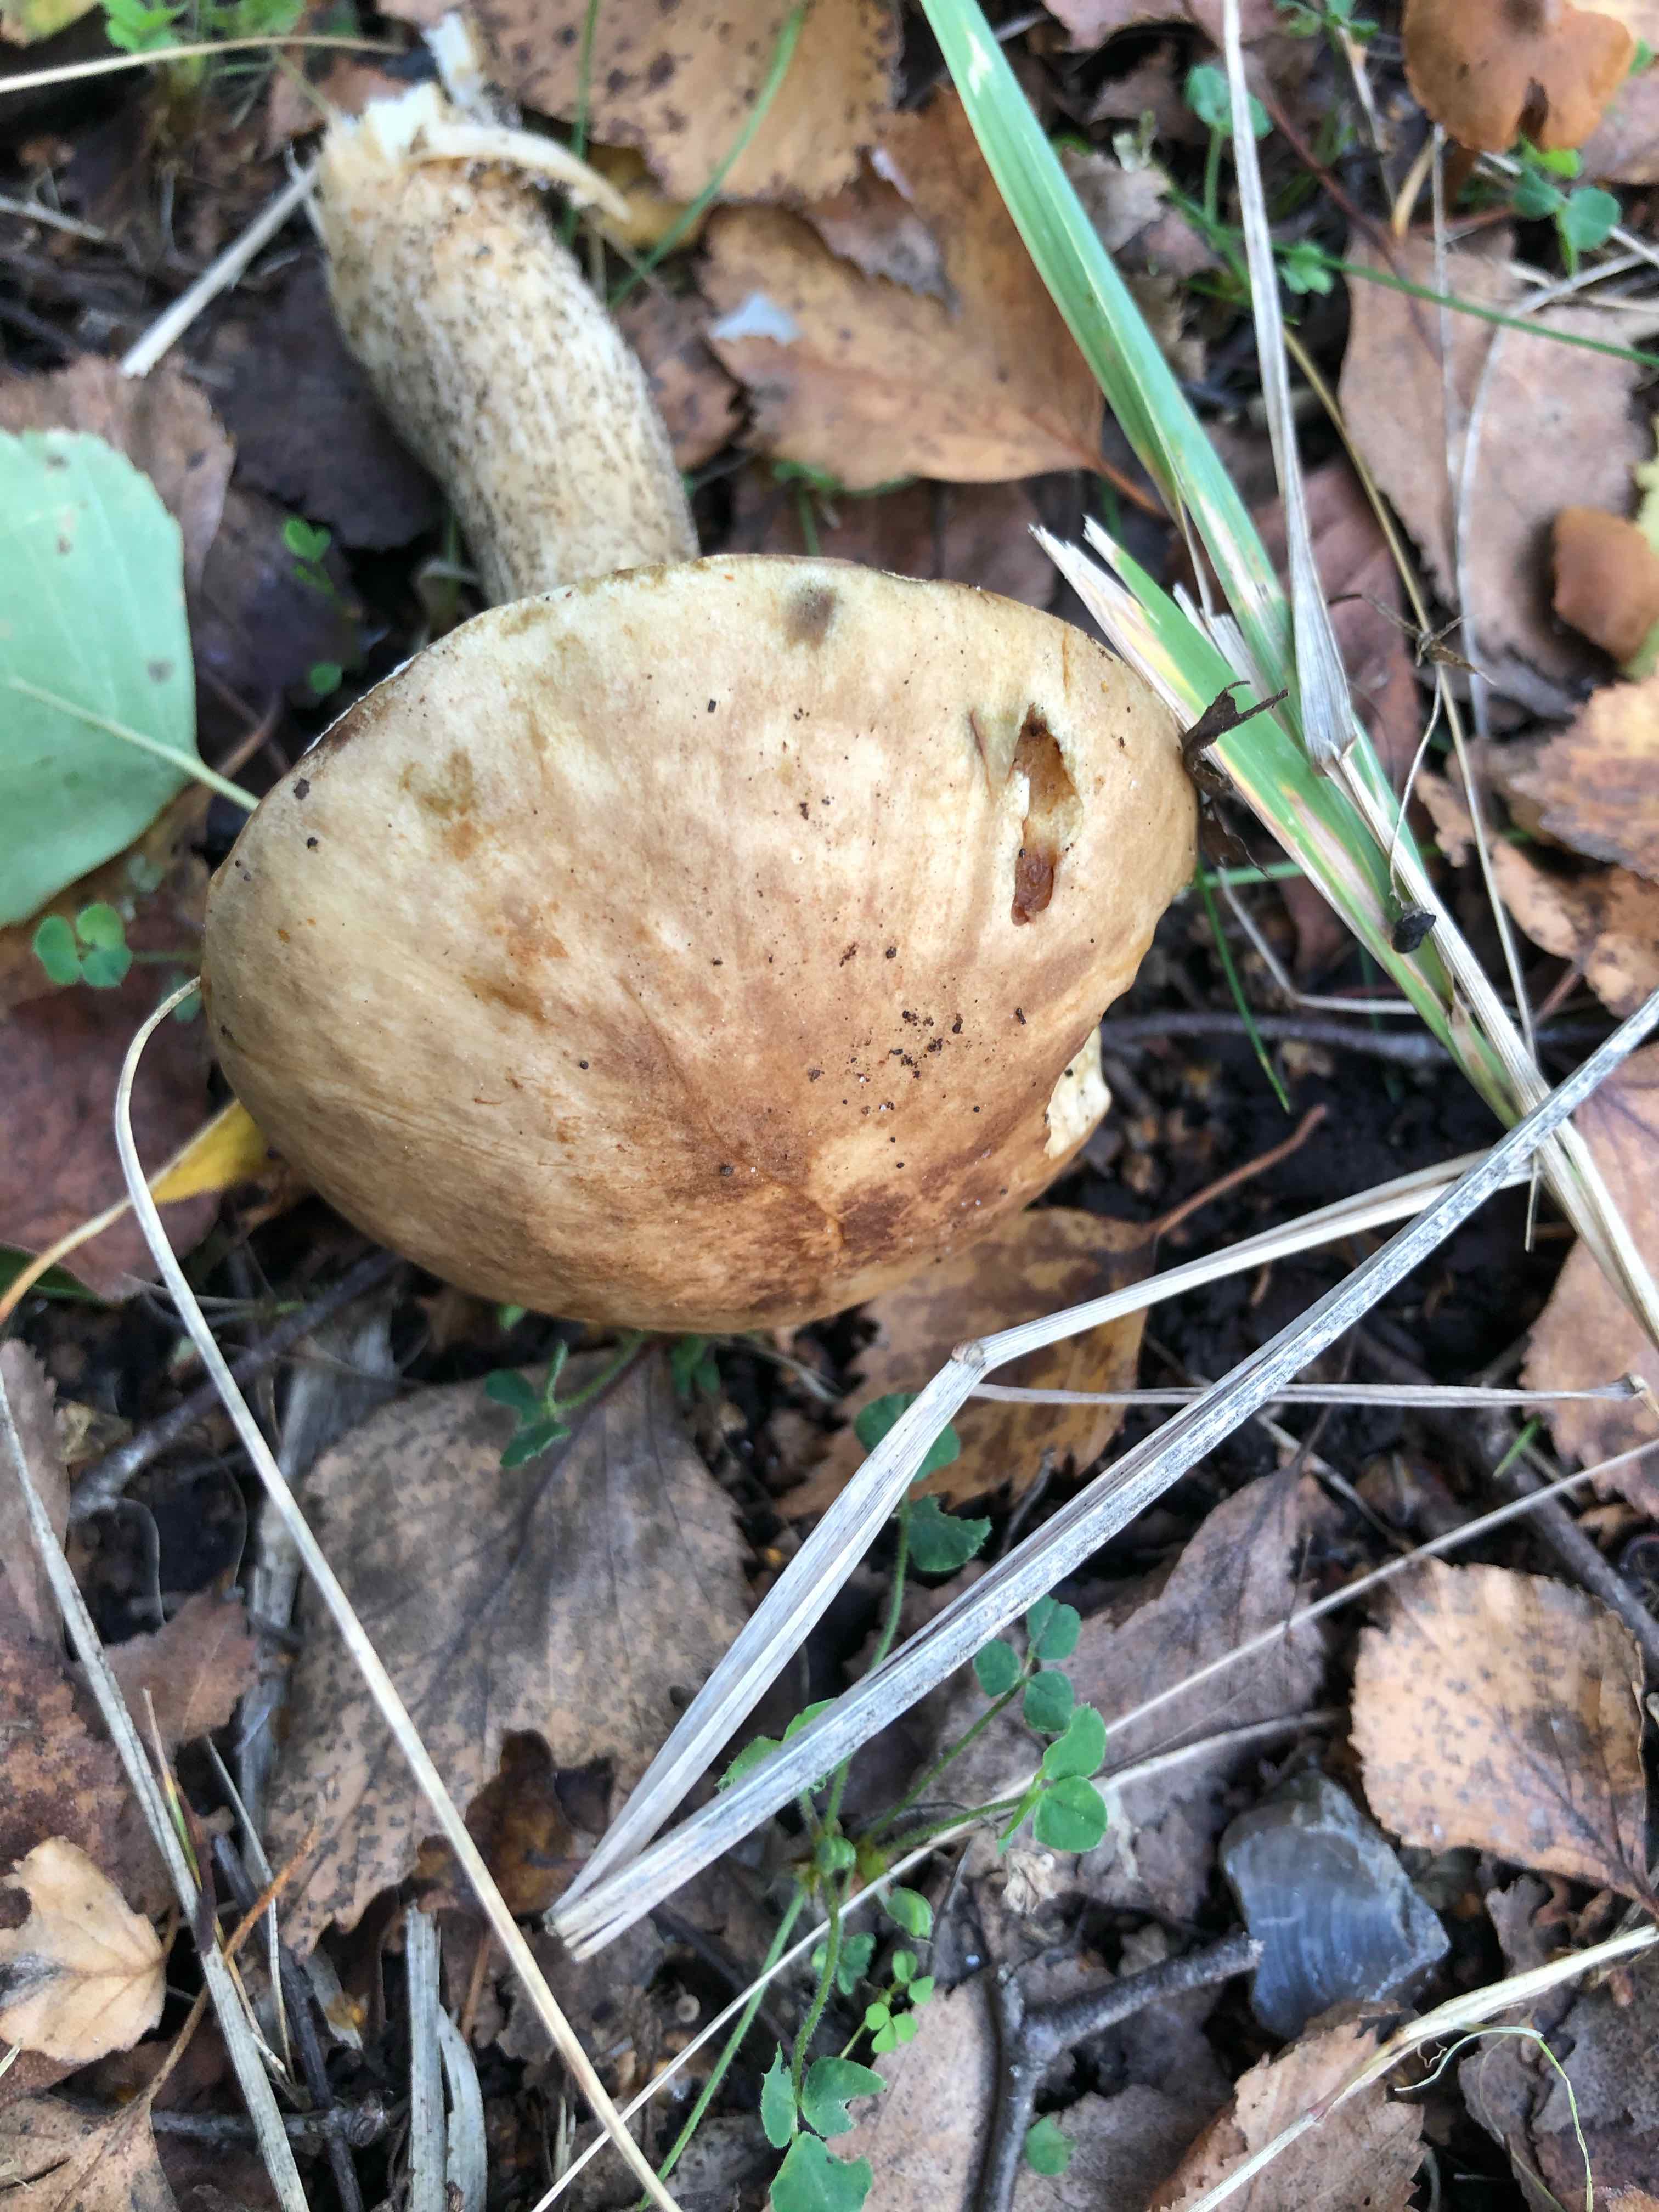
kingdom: Fungi
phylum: Basidiomycota
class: Agaricomycetes
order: Boletales
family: Boletaceae
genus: Leccinum
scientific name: Leccinum scabrum
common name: brun skælrørhat
